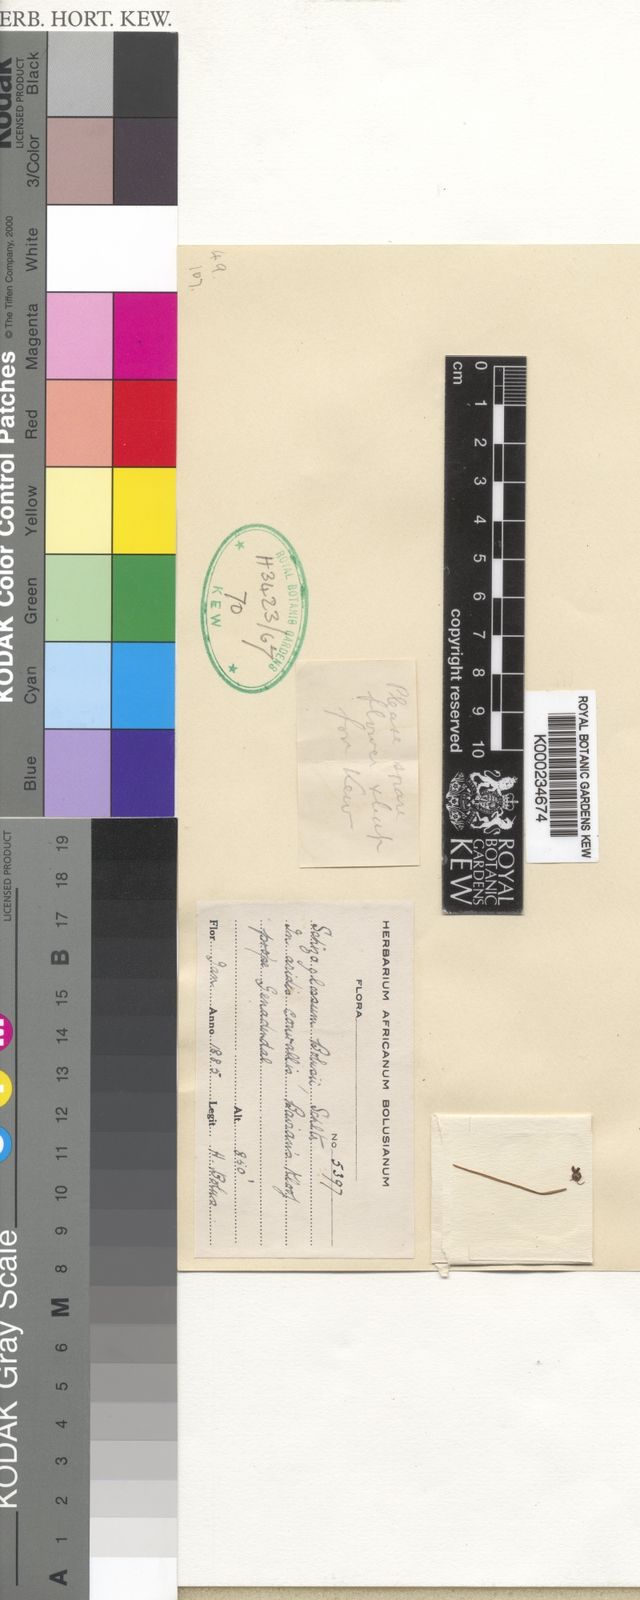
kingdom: Plantae
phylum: Tracheophyta
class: Magnoliopsida
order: Gentianales
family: Apocynaceae
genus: Aspidoglossum
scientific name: Aspidoglossum gracile
